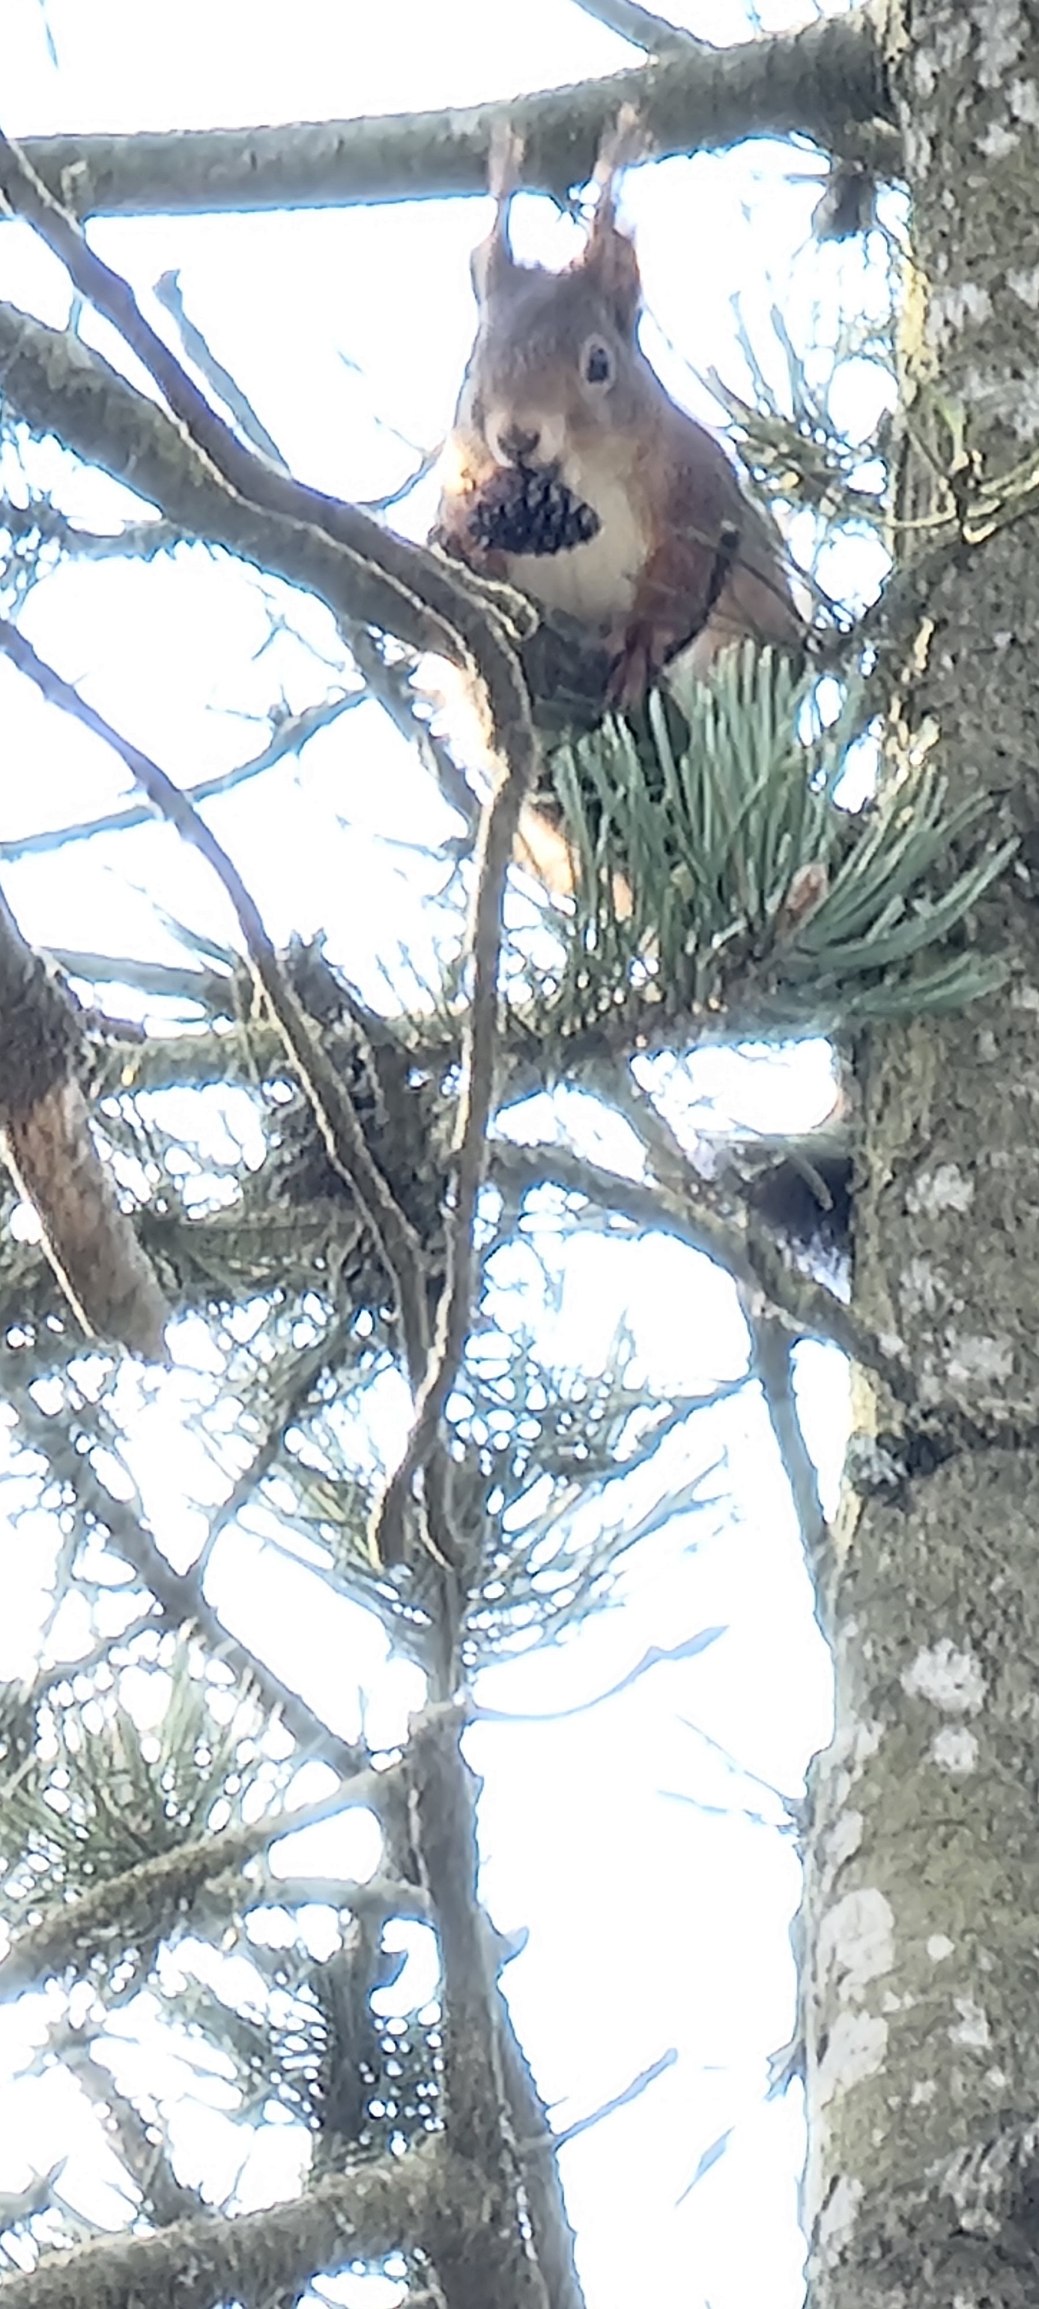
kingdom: Animalia
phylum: Chordata
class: Mammalia
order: Rodentia
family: Sciuridae
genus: Sciurus
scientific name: Sciurus vulgaris
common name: Egern
